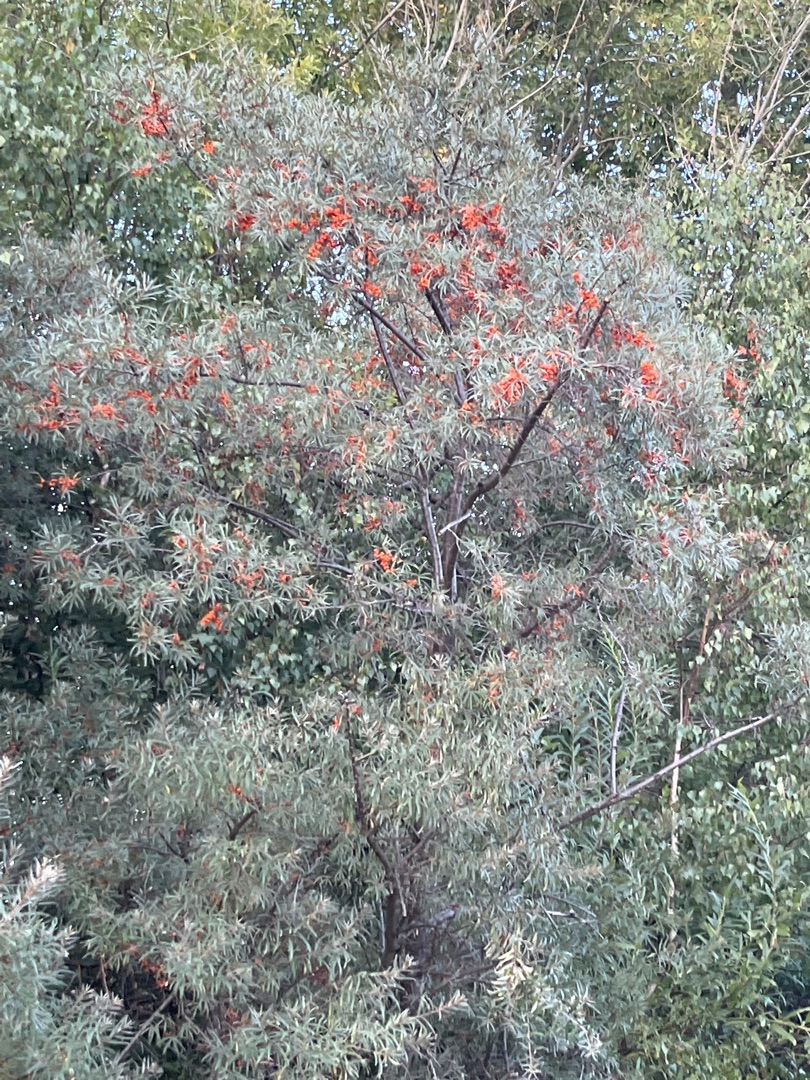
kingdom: Plantae
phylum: Tracheophyta
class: Magnoliopsida
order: Rosales
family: Elaeagnaceae
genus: Hippophae
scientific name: Hippophae rhamnoides
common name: Havtorn
